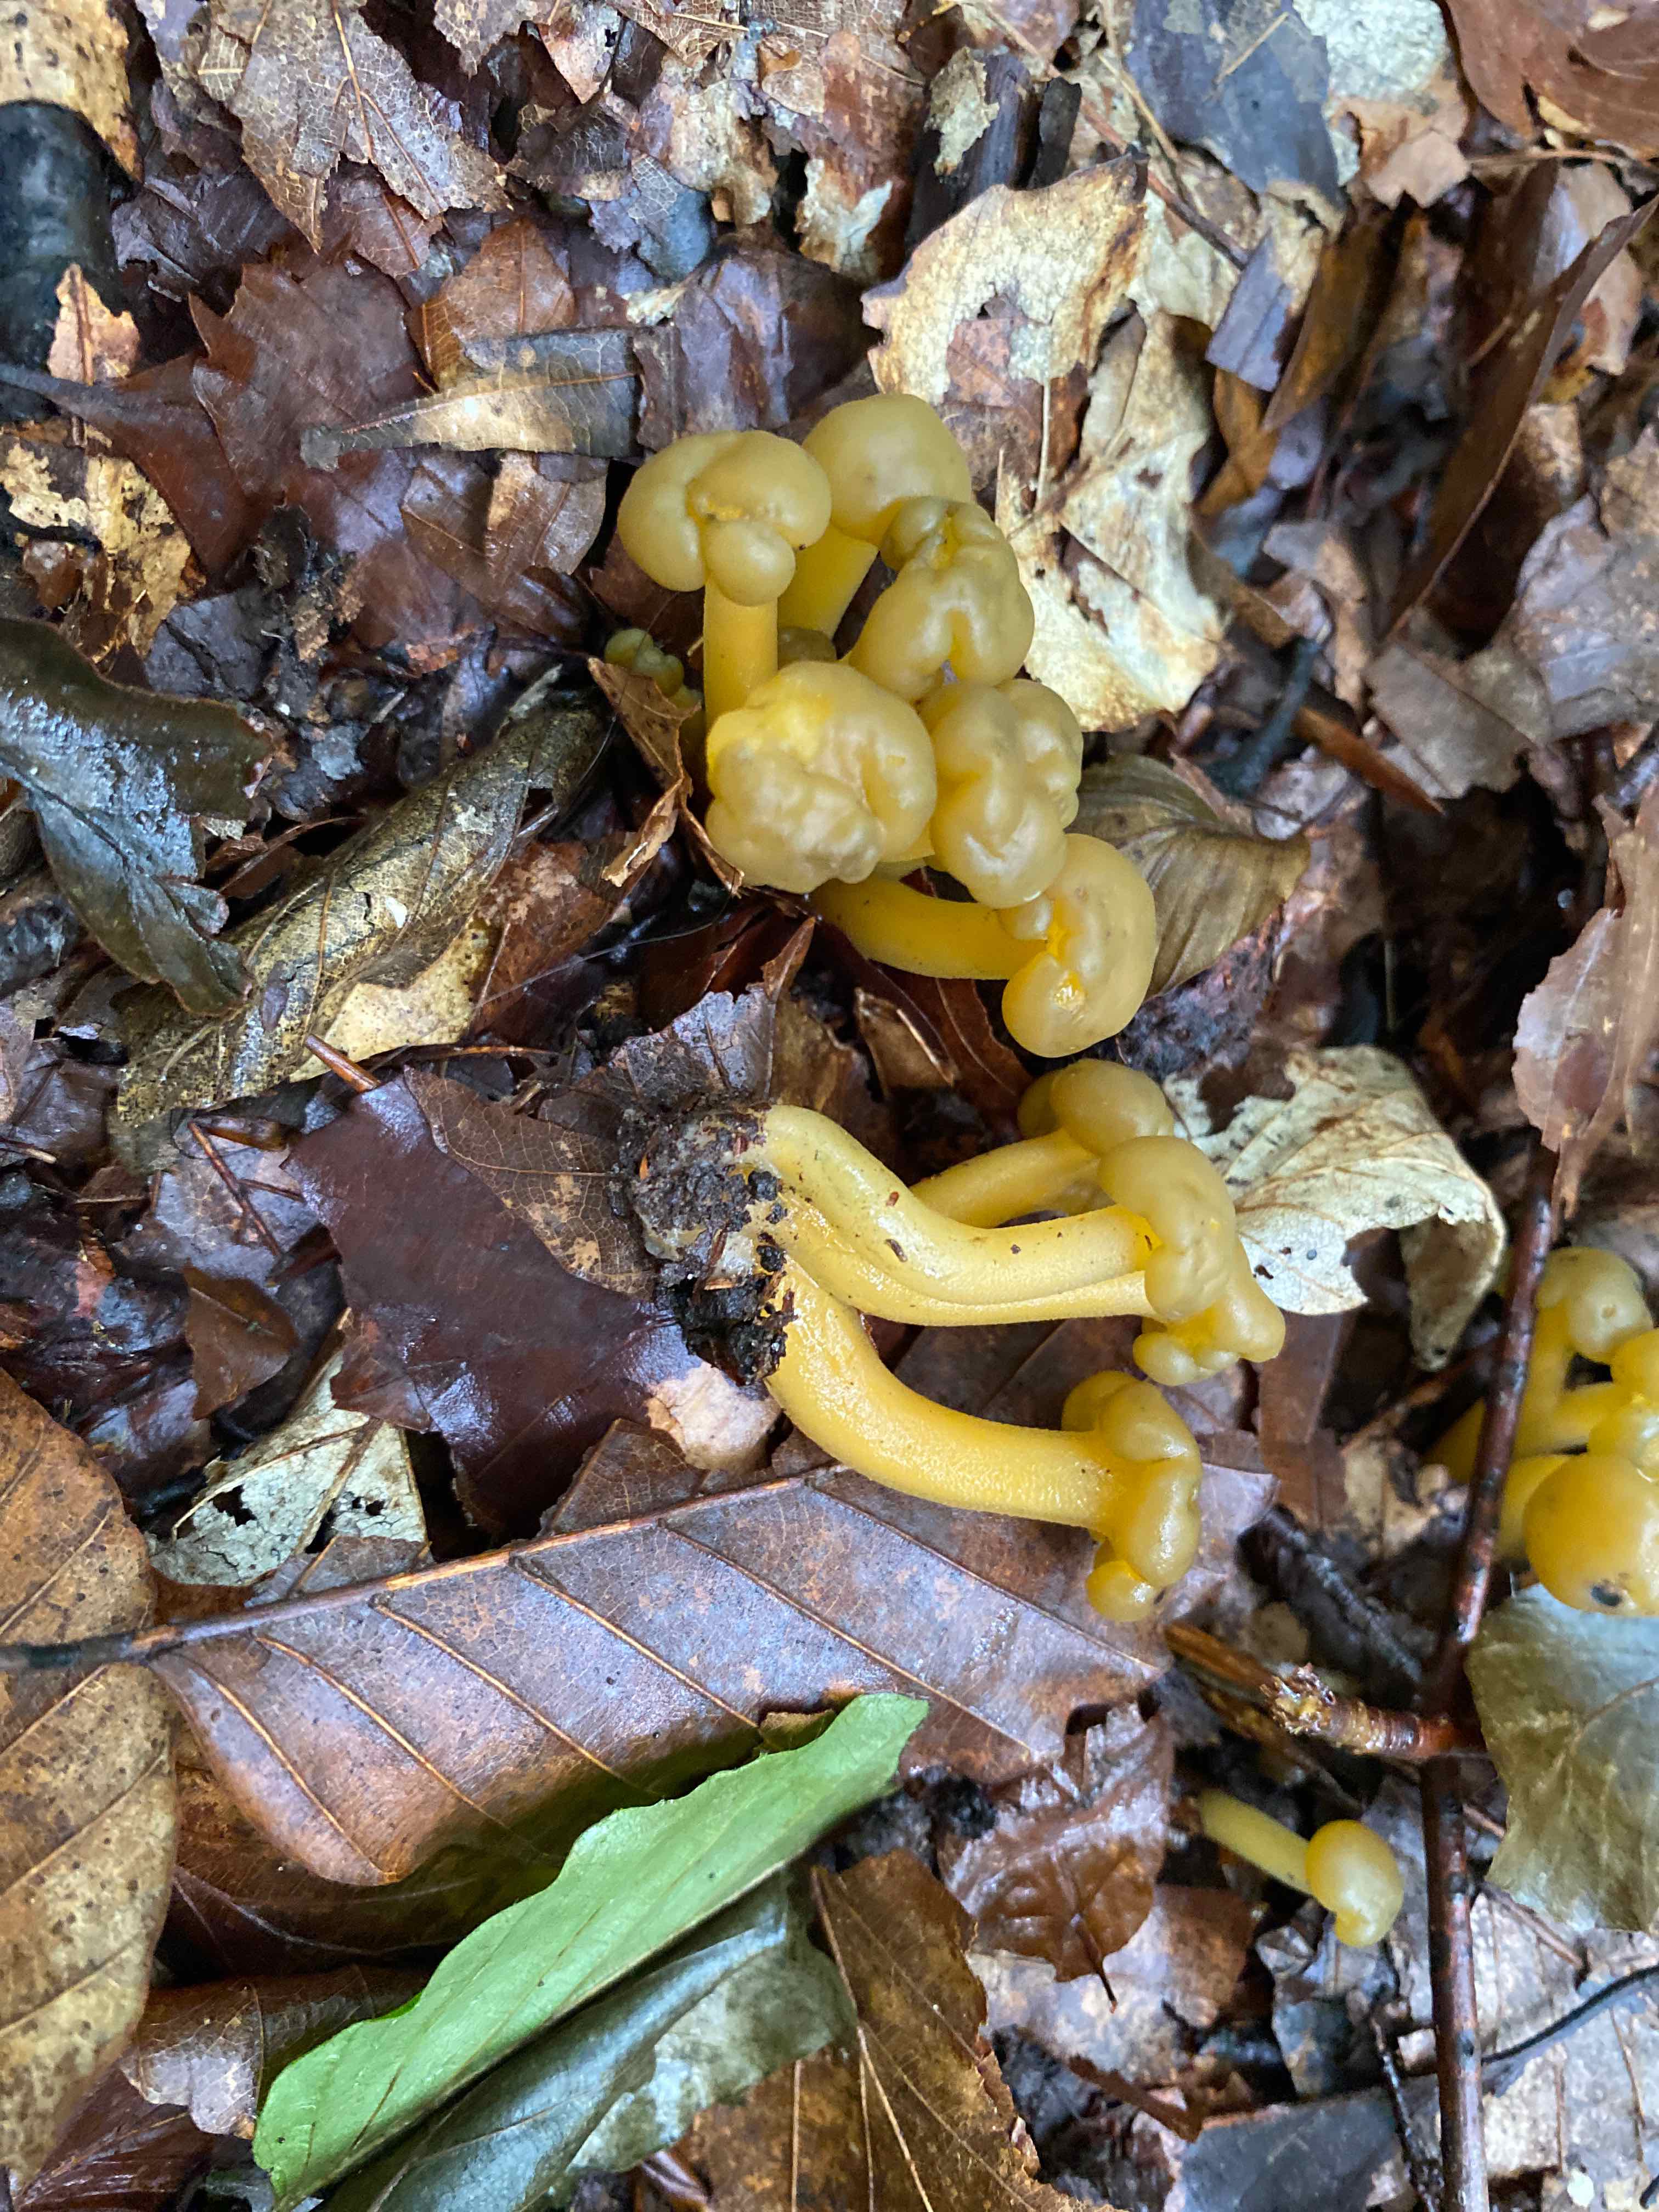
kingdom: Fungi
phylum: Ascomycota
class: Leotiomycetes
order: Leotiales
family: Leotiaceae
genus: Leotia
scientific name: Leotia lubrica
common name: ravsvamp
